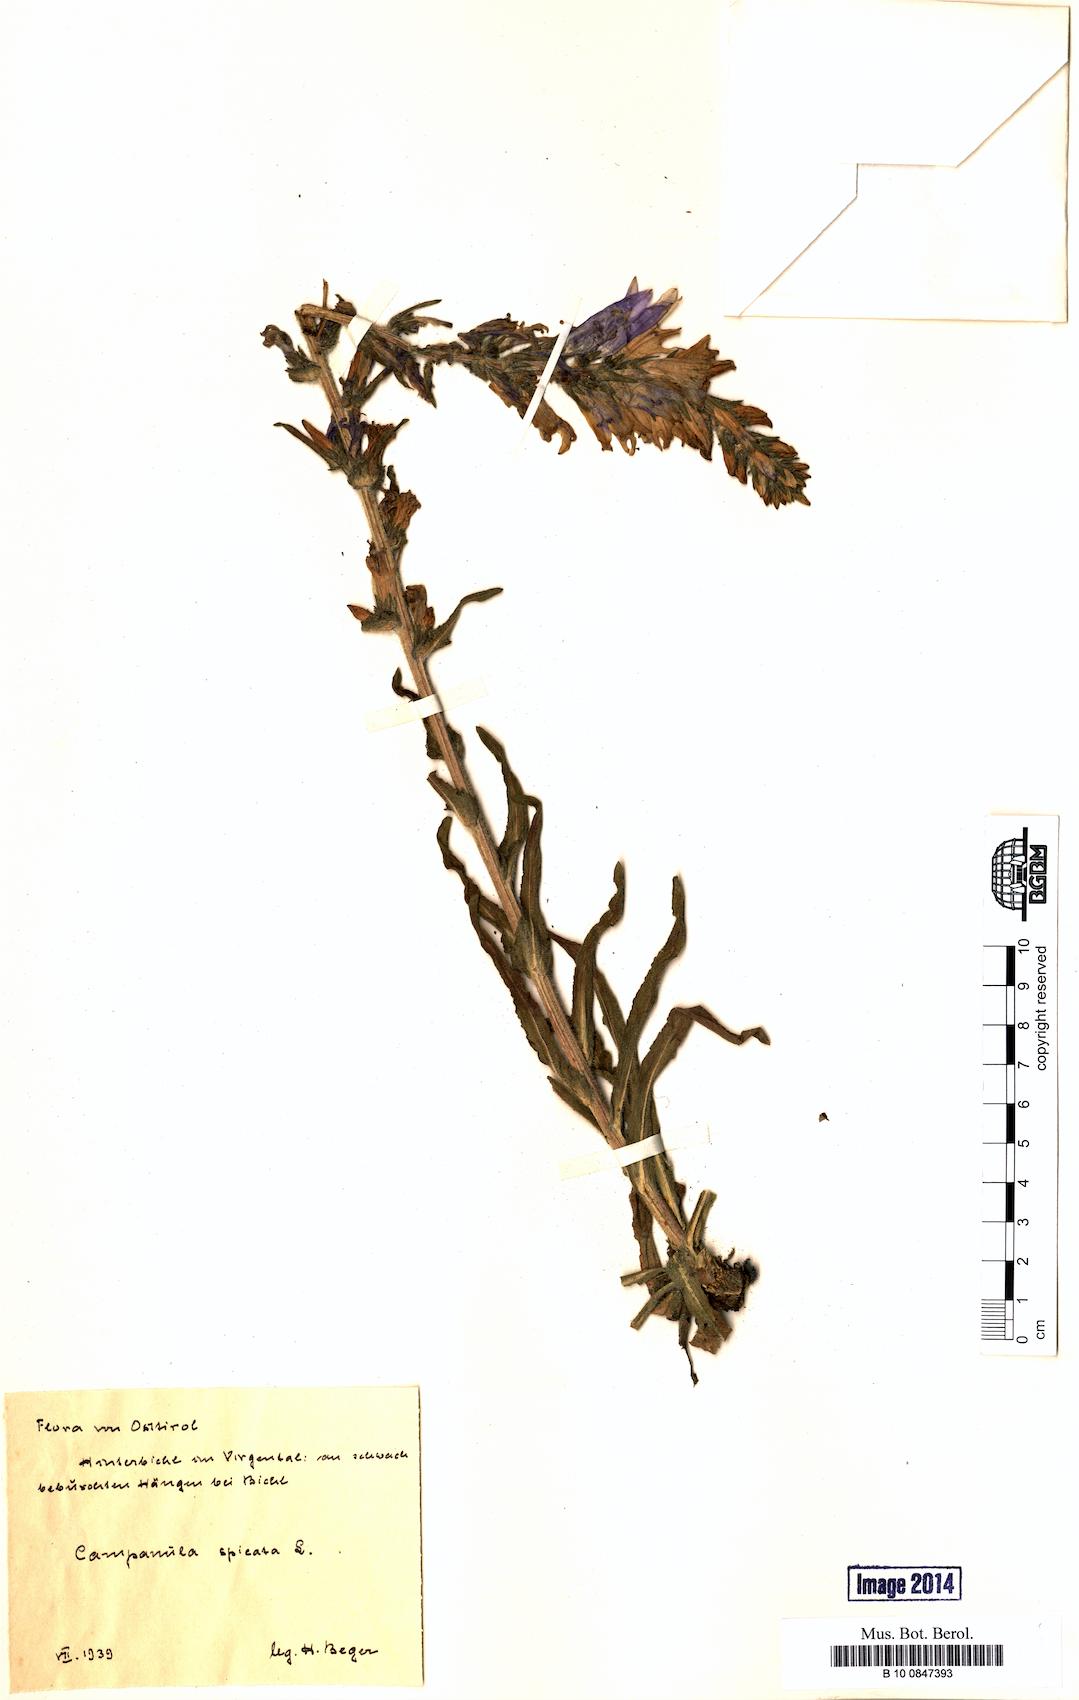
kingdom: Plantae
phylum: Tracheophyta
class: Magnoliopsida
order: Asterales
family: Campanulaceae
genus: Campanula
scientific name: Campanula spicata
